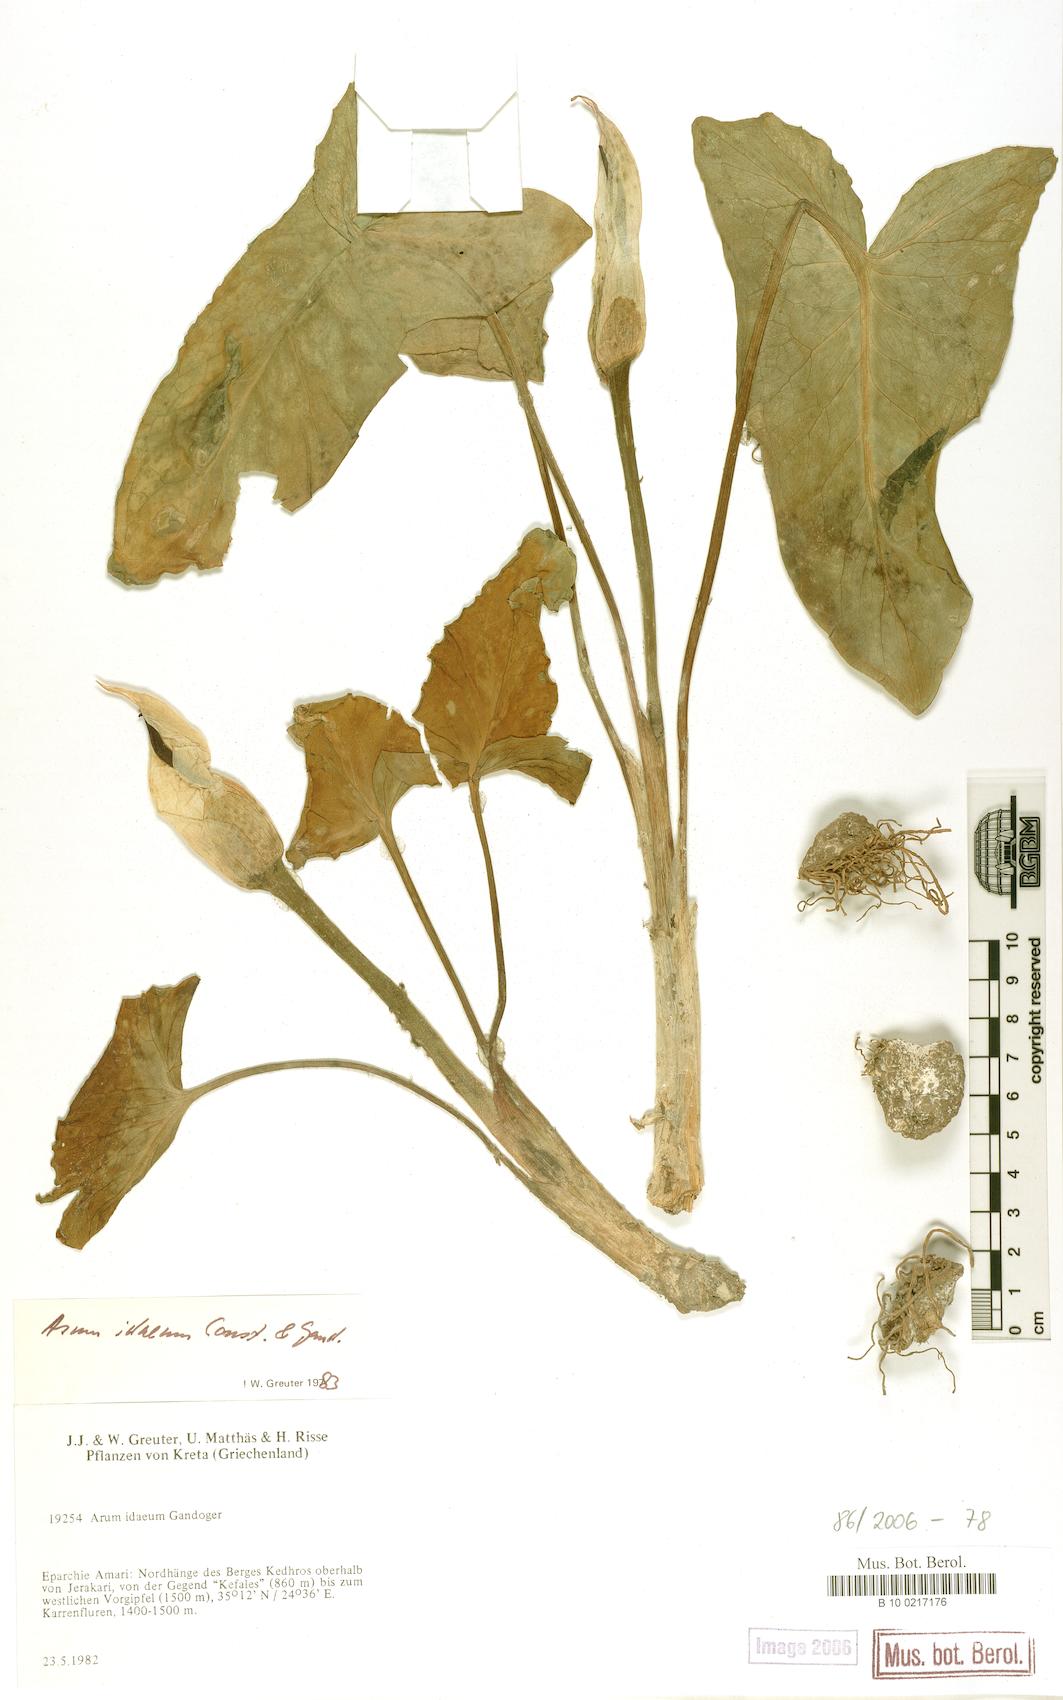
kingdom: Plantae
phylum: Tracheophyta
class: Liliopsida
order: Alismatales
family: Araceae
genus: Arum
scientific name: Arum idaeum
